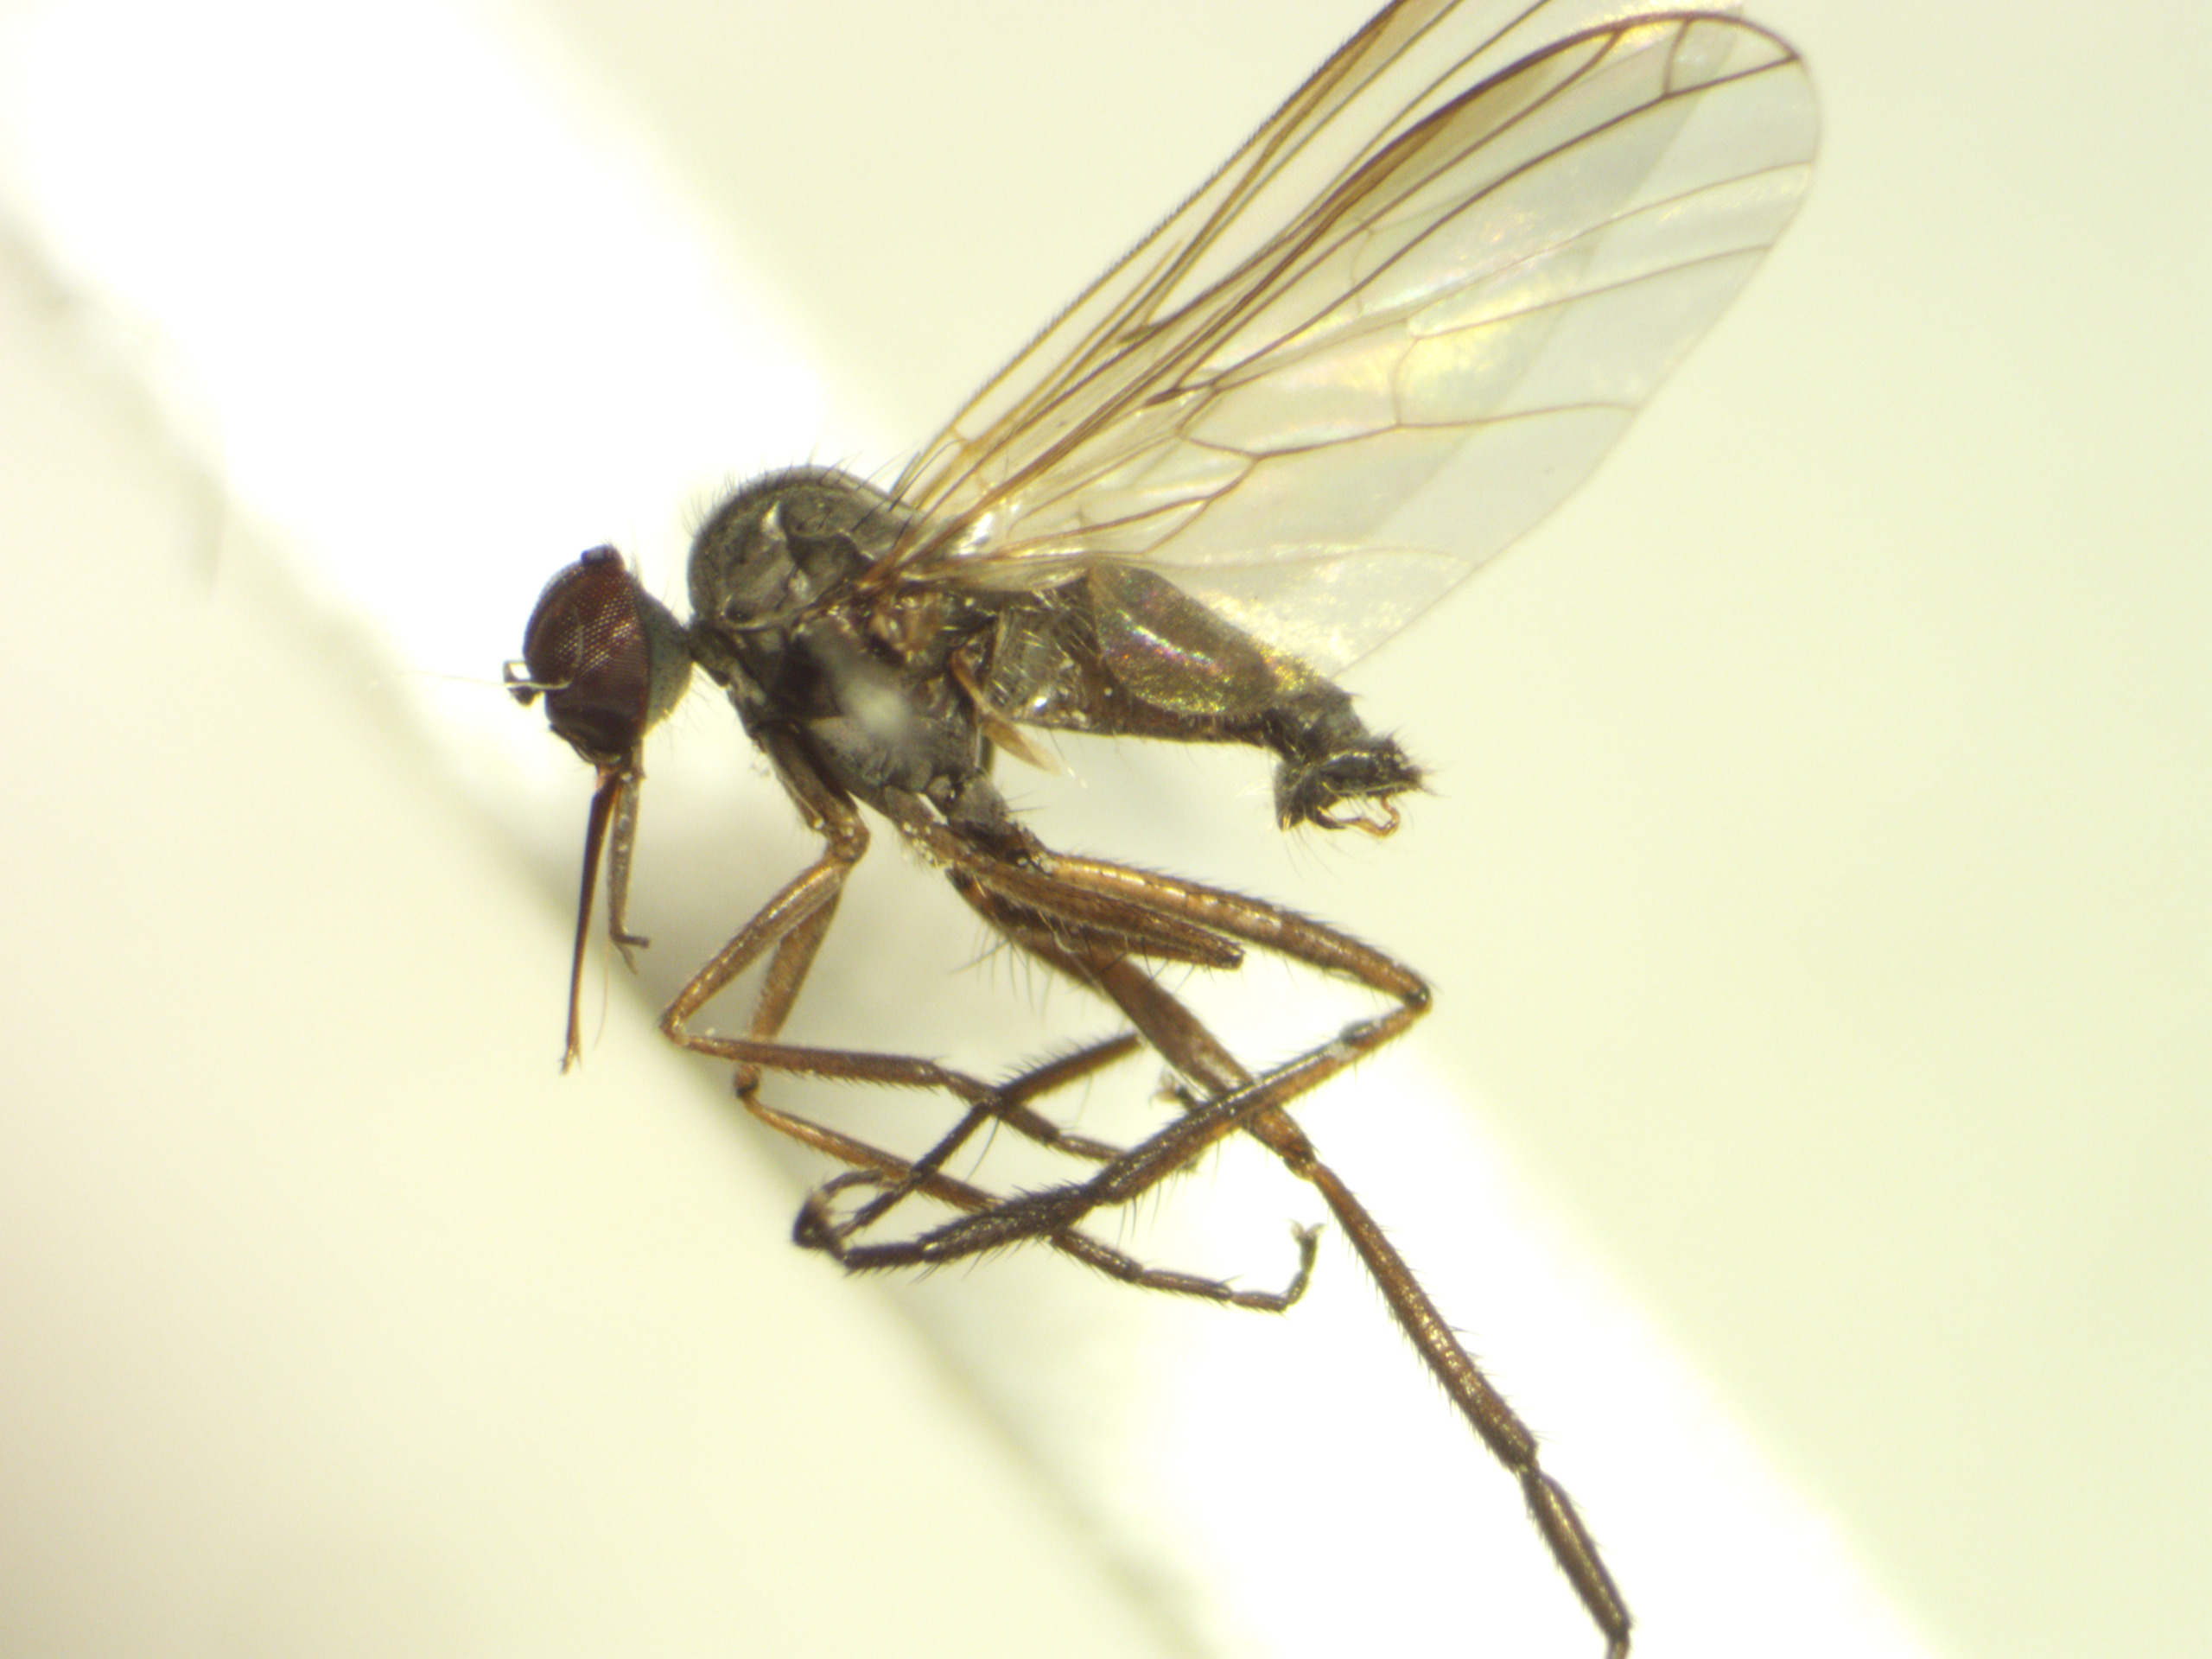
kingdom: Animalia
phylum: Arthropoda
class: Insecta
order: Diptera
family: Empididae
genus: Empis
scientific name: Empis nuntia
